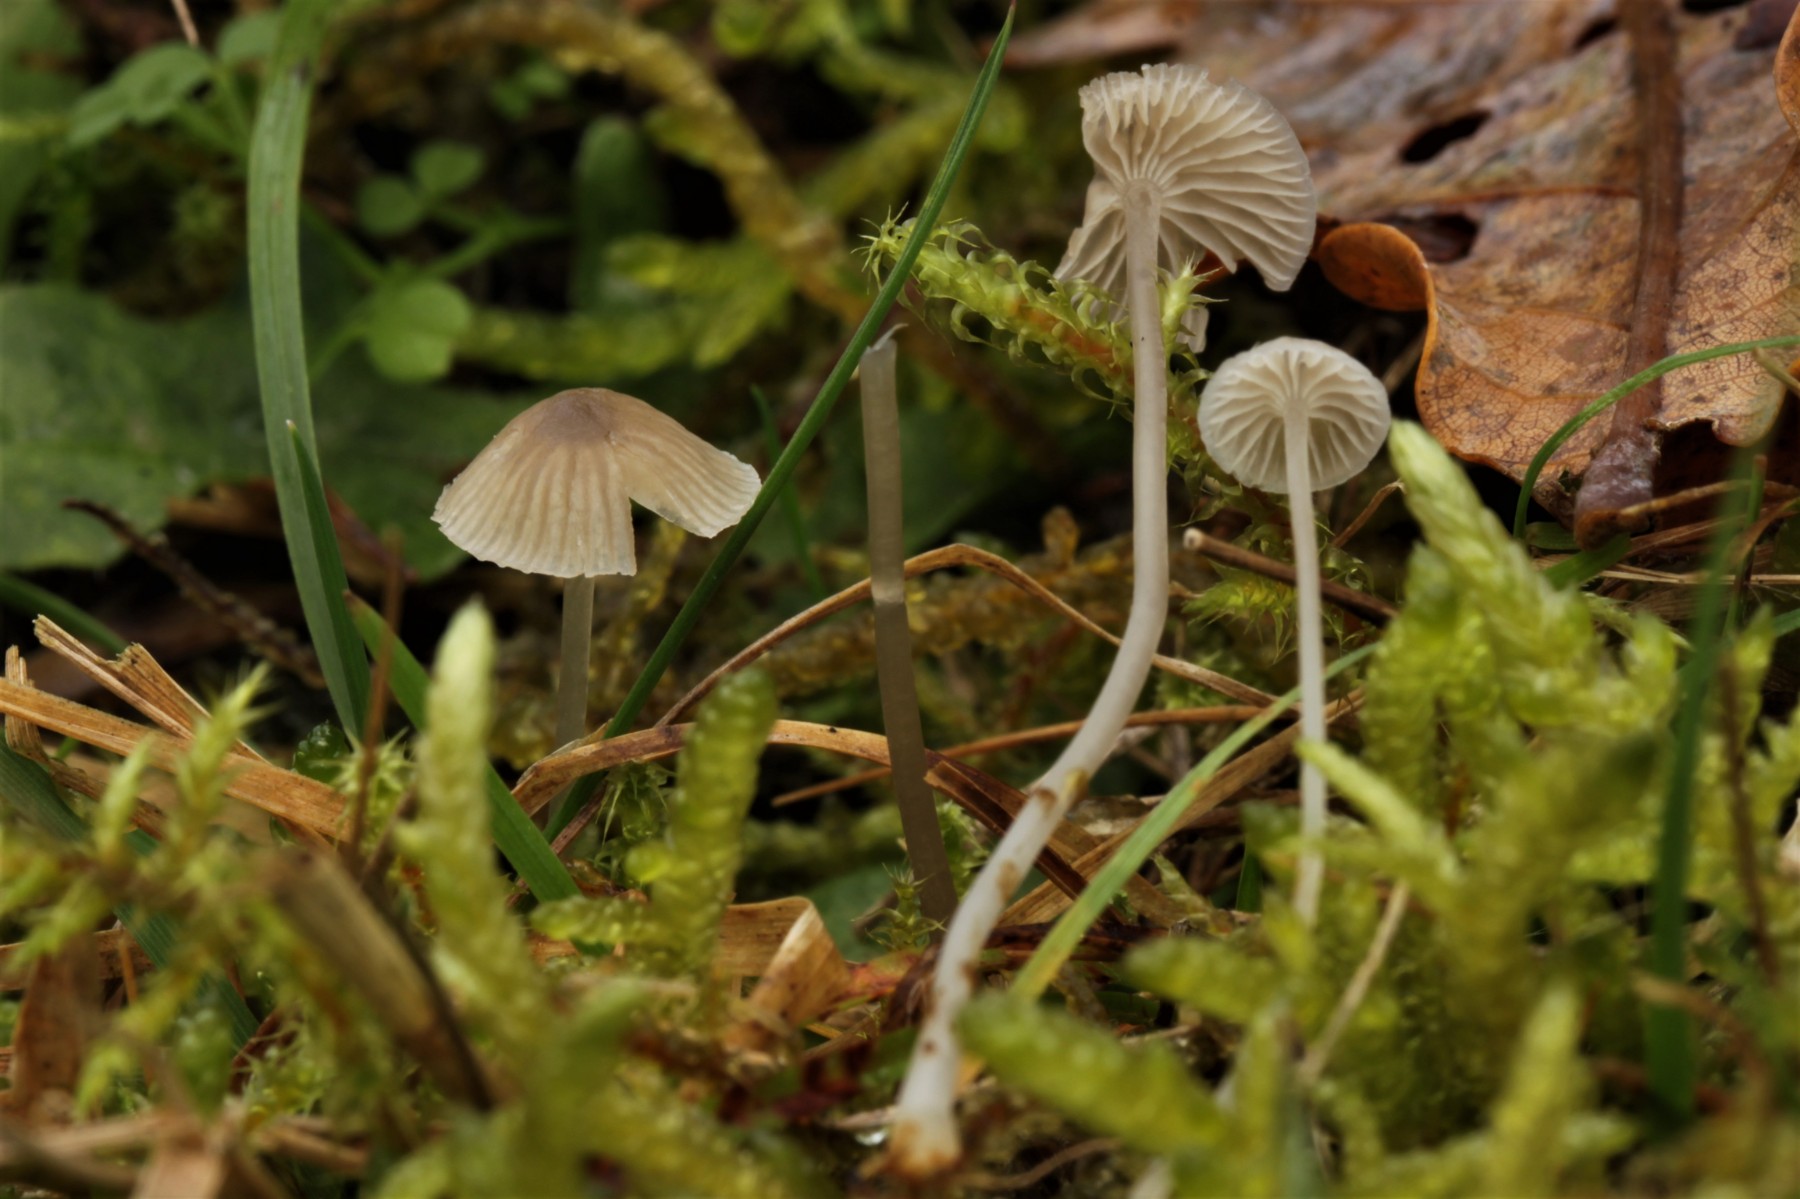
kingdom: Fungi
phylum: Basidiomycota
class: Agaricomycetes
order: Agaricales
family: Mycenaceae
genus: Mycena
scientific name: Mycena
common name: huesvamp
